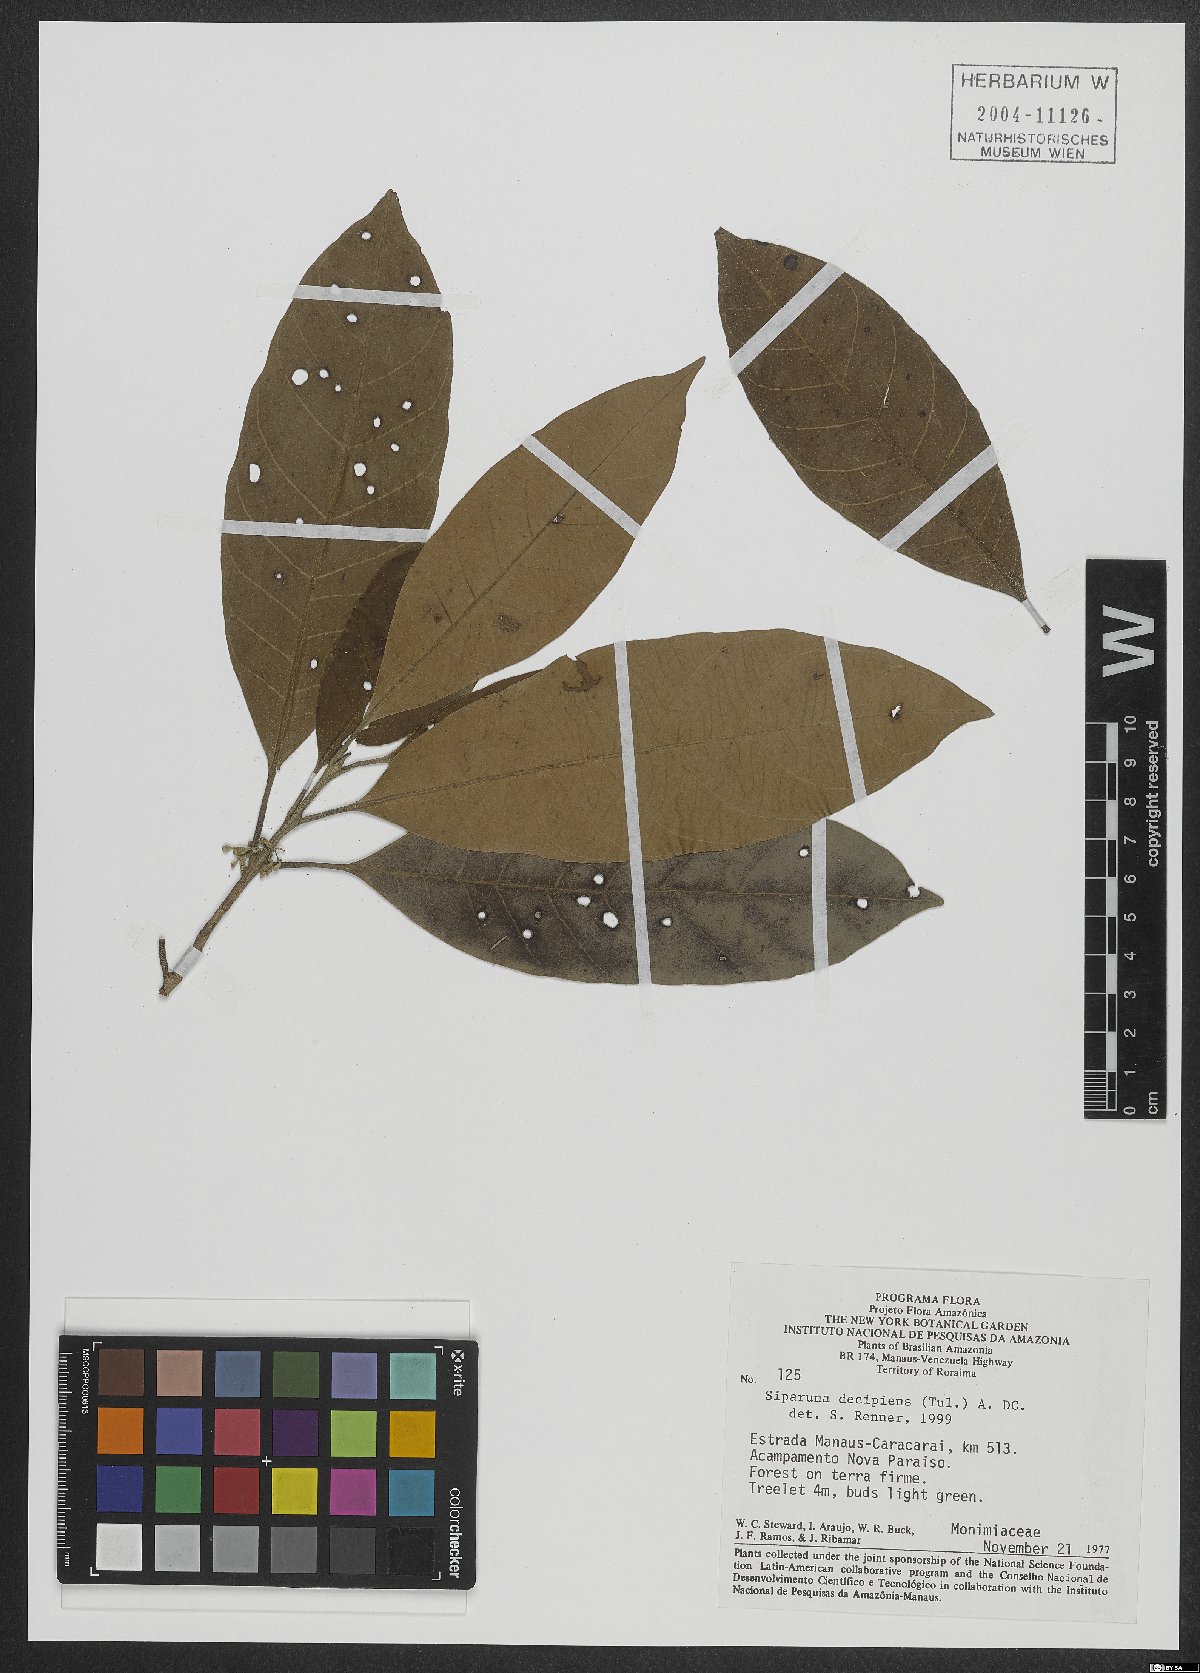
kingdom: Plantae
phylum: Tracheophyta
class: Magnoliopsida
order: Laurales
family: Siparunaceae
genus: Siparuna
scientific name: Siparuna decipiens
